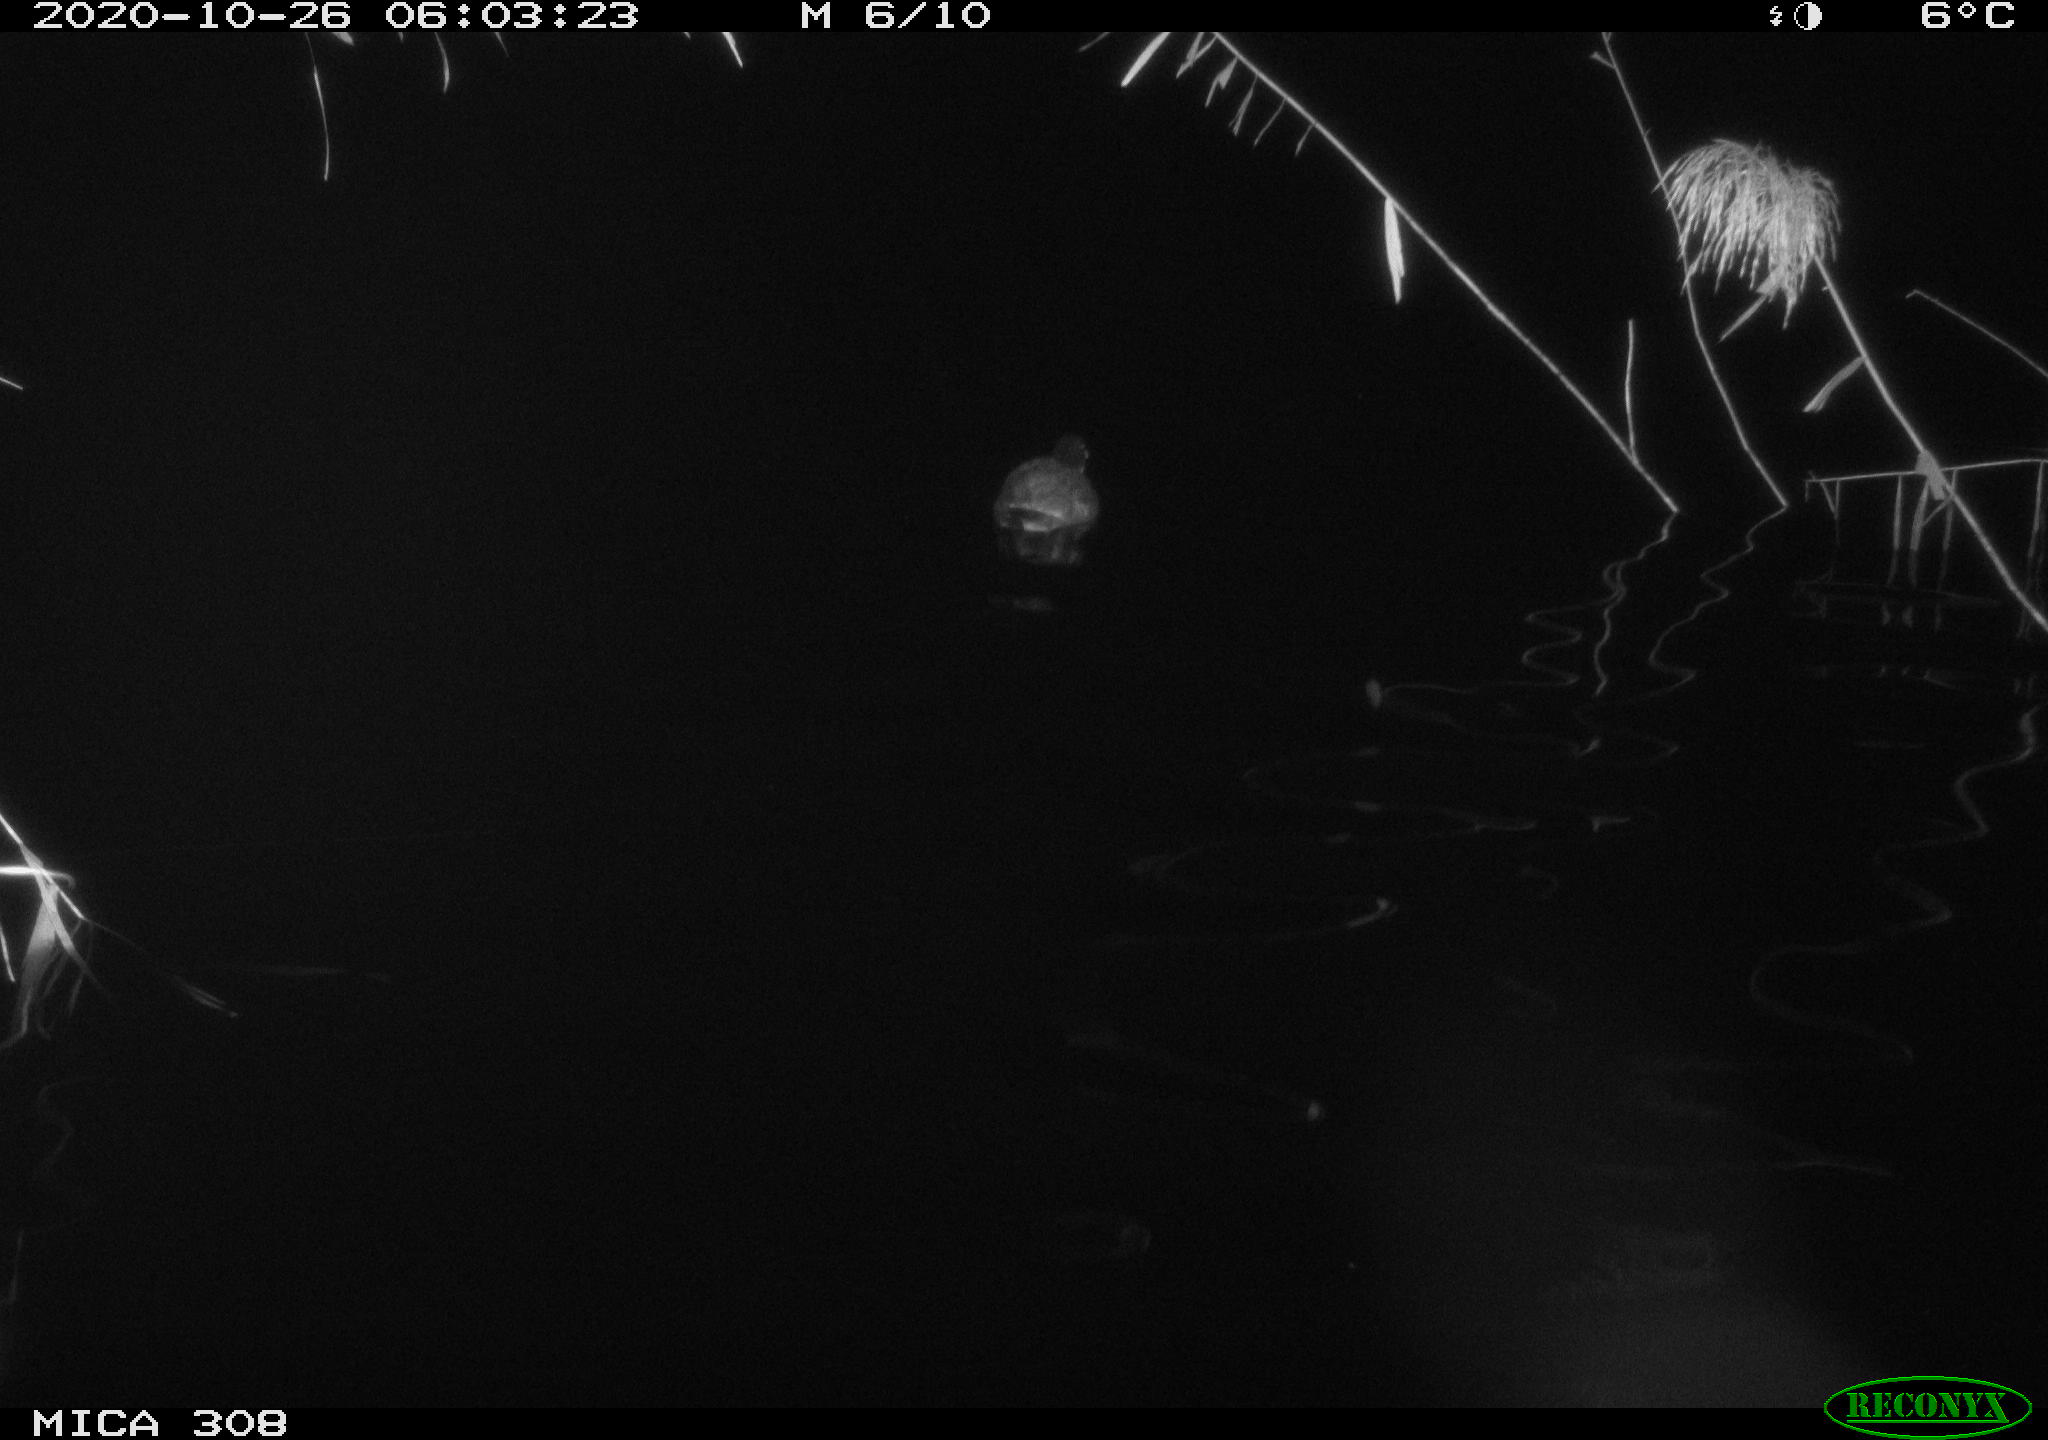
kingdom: Animalia
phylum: Chordata
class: Aves
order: Anseriformes
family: Anatidae
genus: Anas
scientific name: Anas platyrhynchos
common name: Mallard
